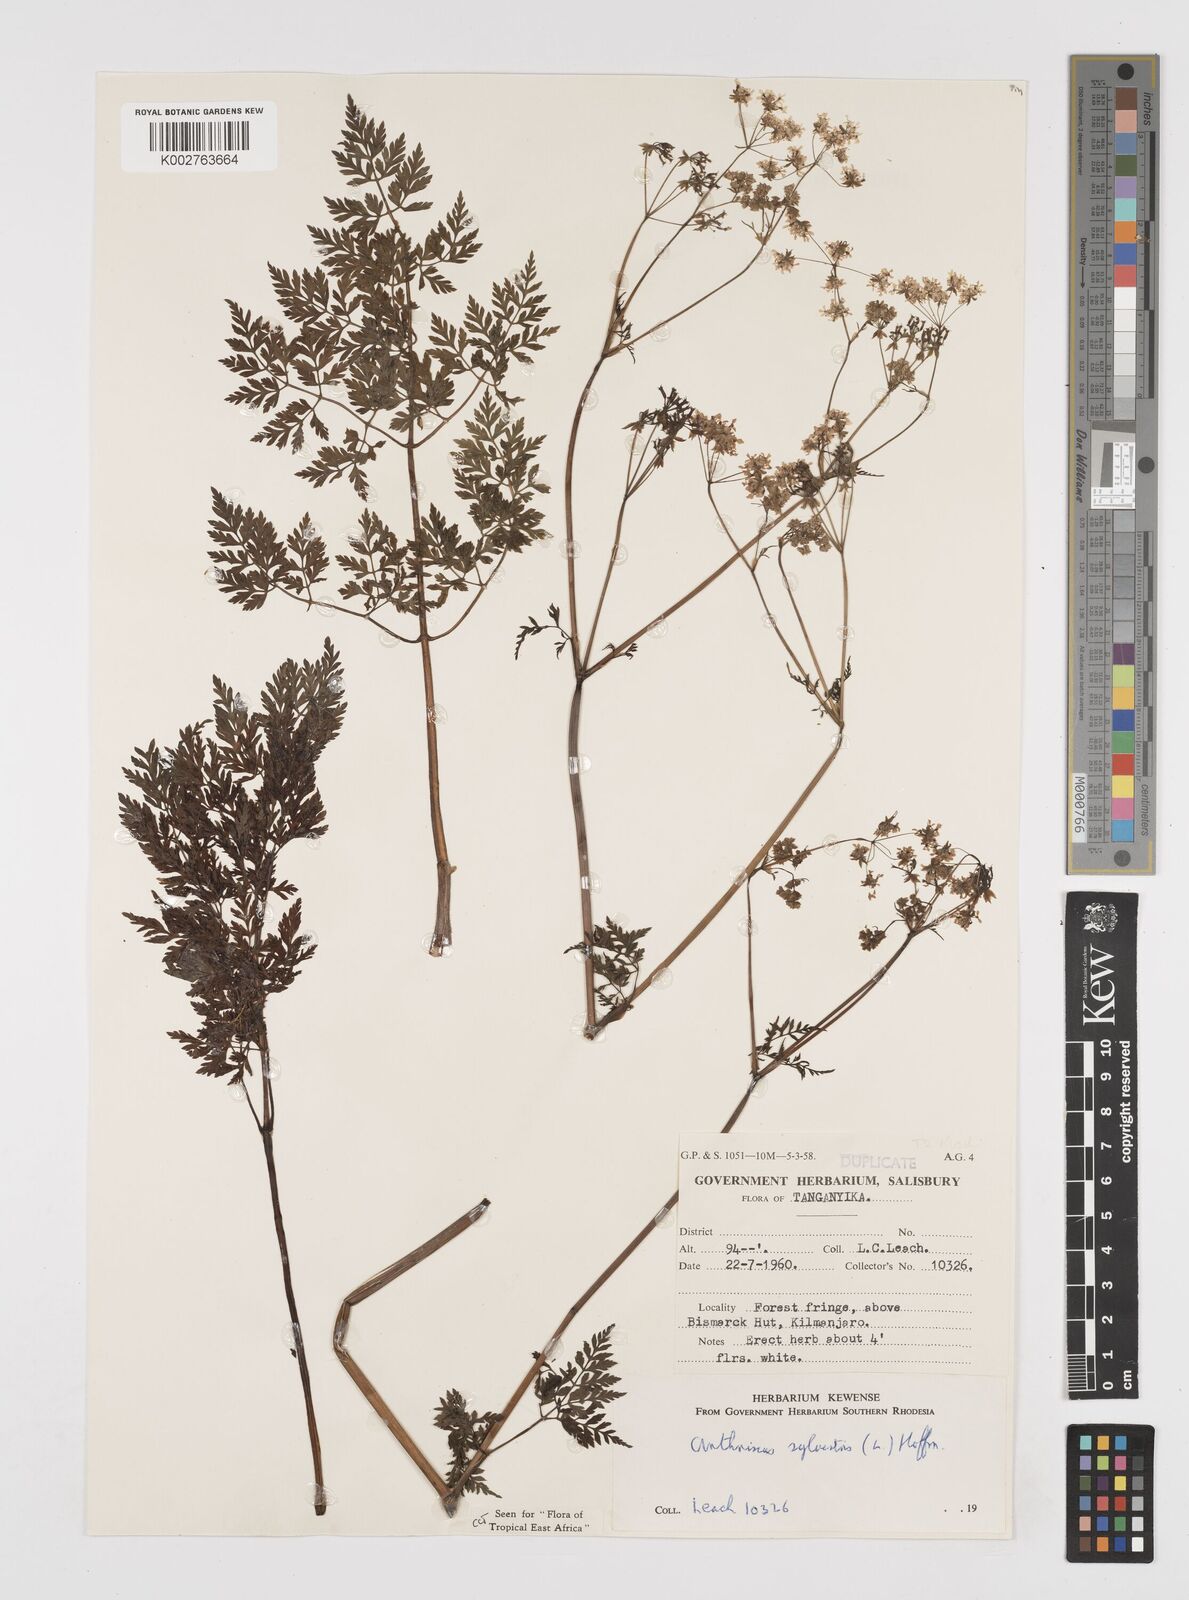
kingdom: Plantae
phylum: Tracheophyta
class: Magnoliopsida
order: Apiales
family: Apiaceae
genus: Anthriscus
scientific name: Anthriscus sylvestris
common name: Cow parsley
